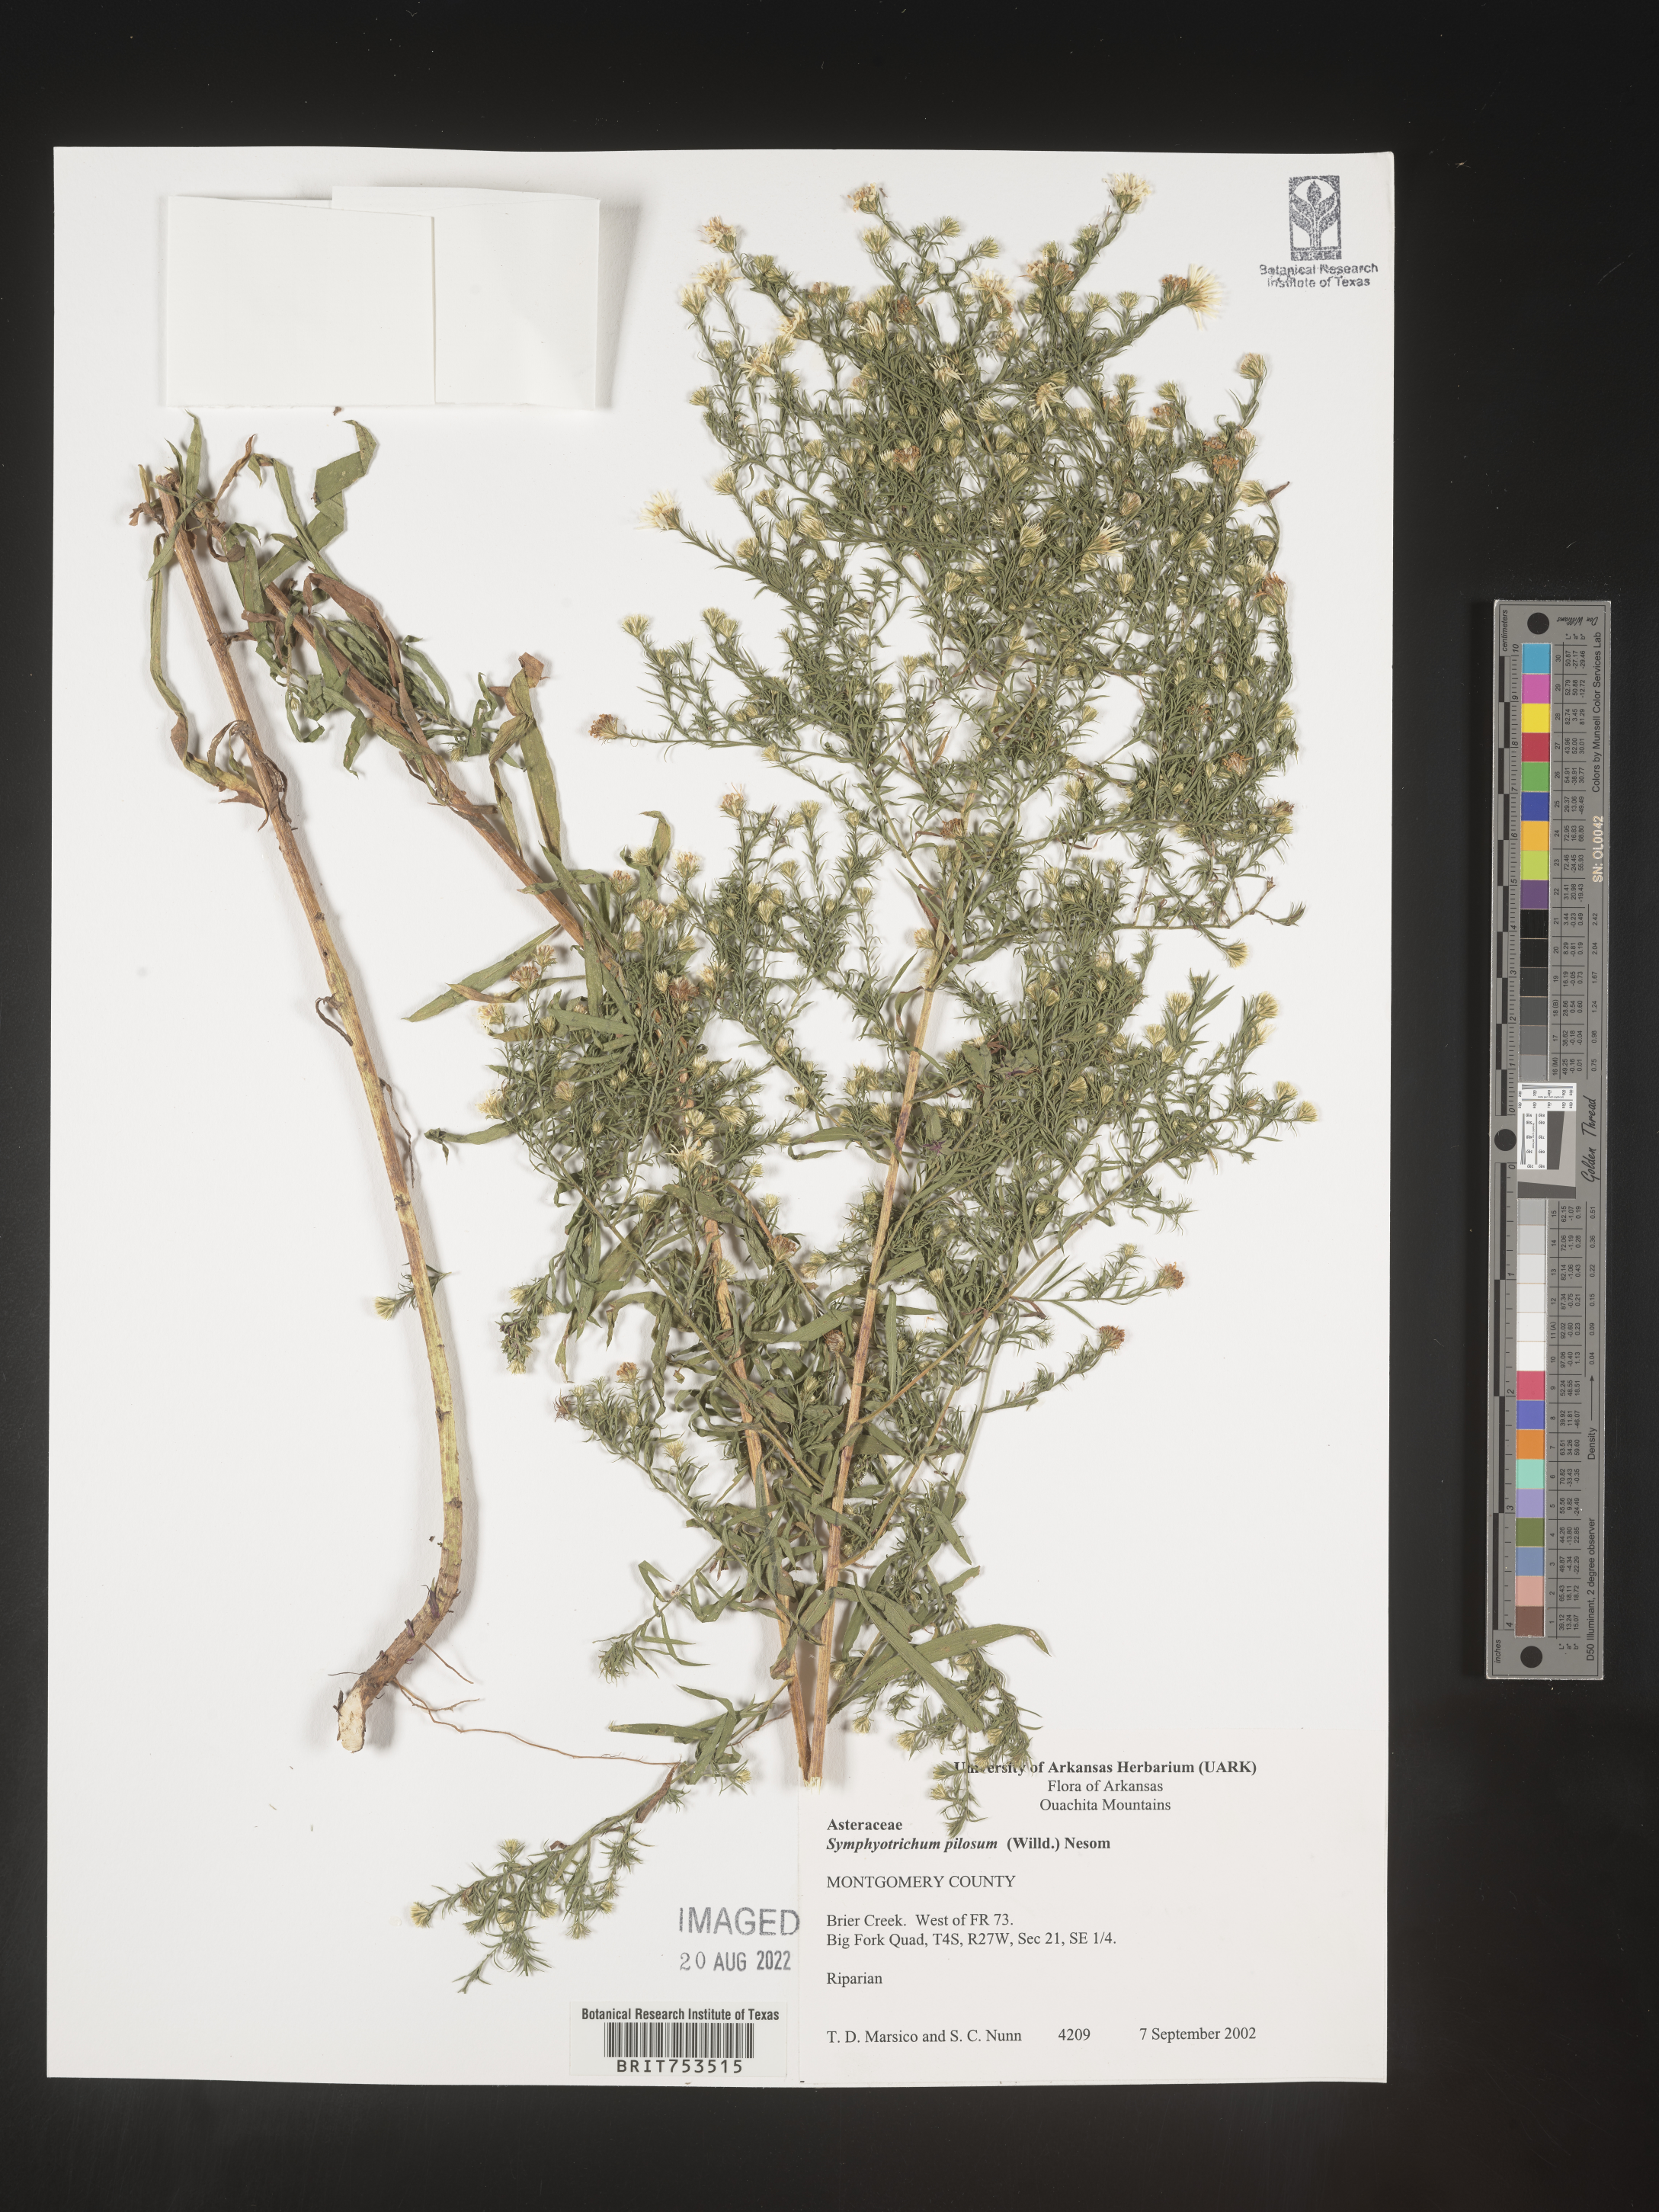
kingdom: Plantae
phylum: Tracheophyta
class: Magnoliopsida
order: Asterales
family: Asteraceae
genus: Symphyotrichum
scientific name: Symphyotrichum pilosum
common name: Awl aster
